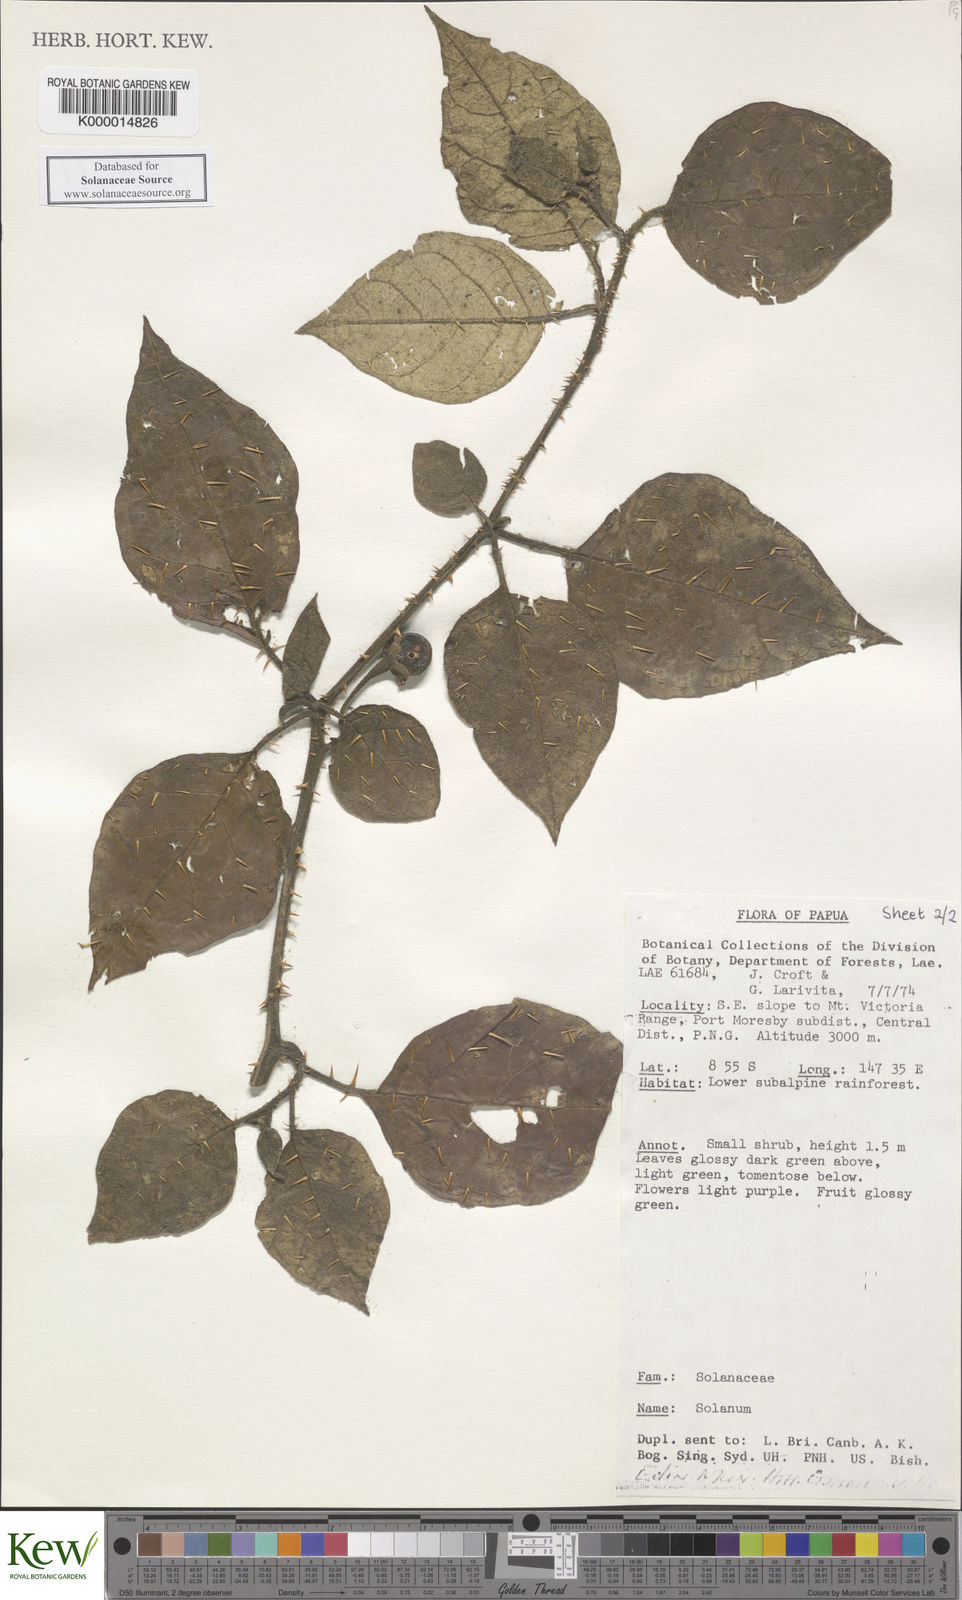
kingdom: Plantae
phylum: Tracheophyta
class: Magnoliopsida
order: Solanales
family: Solanaceae
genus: Solanum
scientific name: Solanum trichostylum
